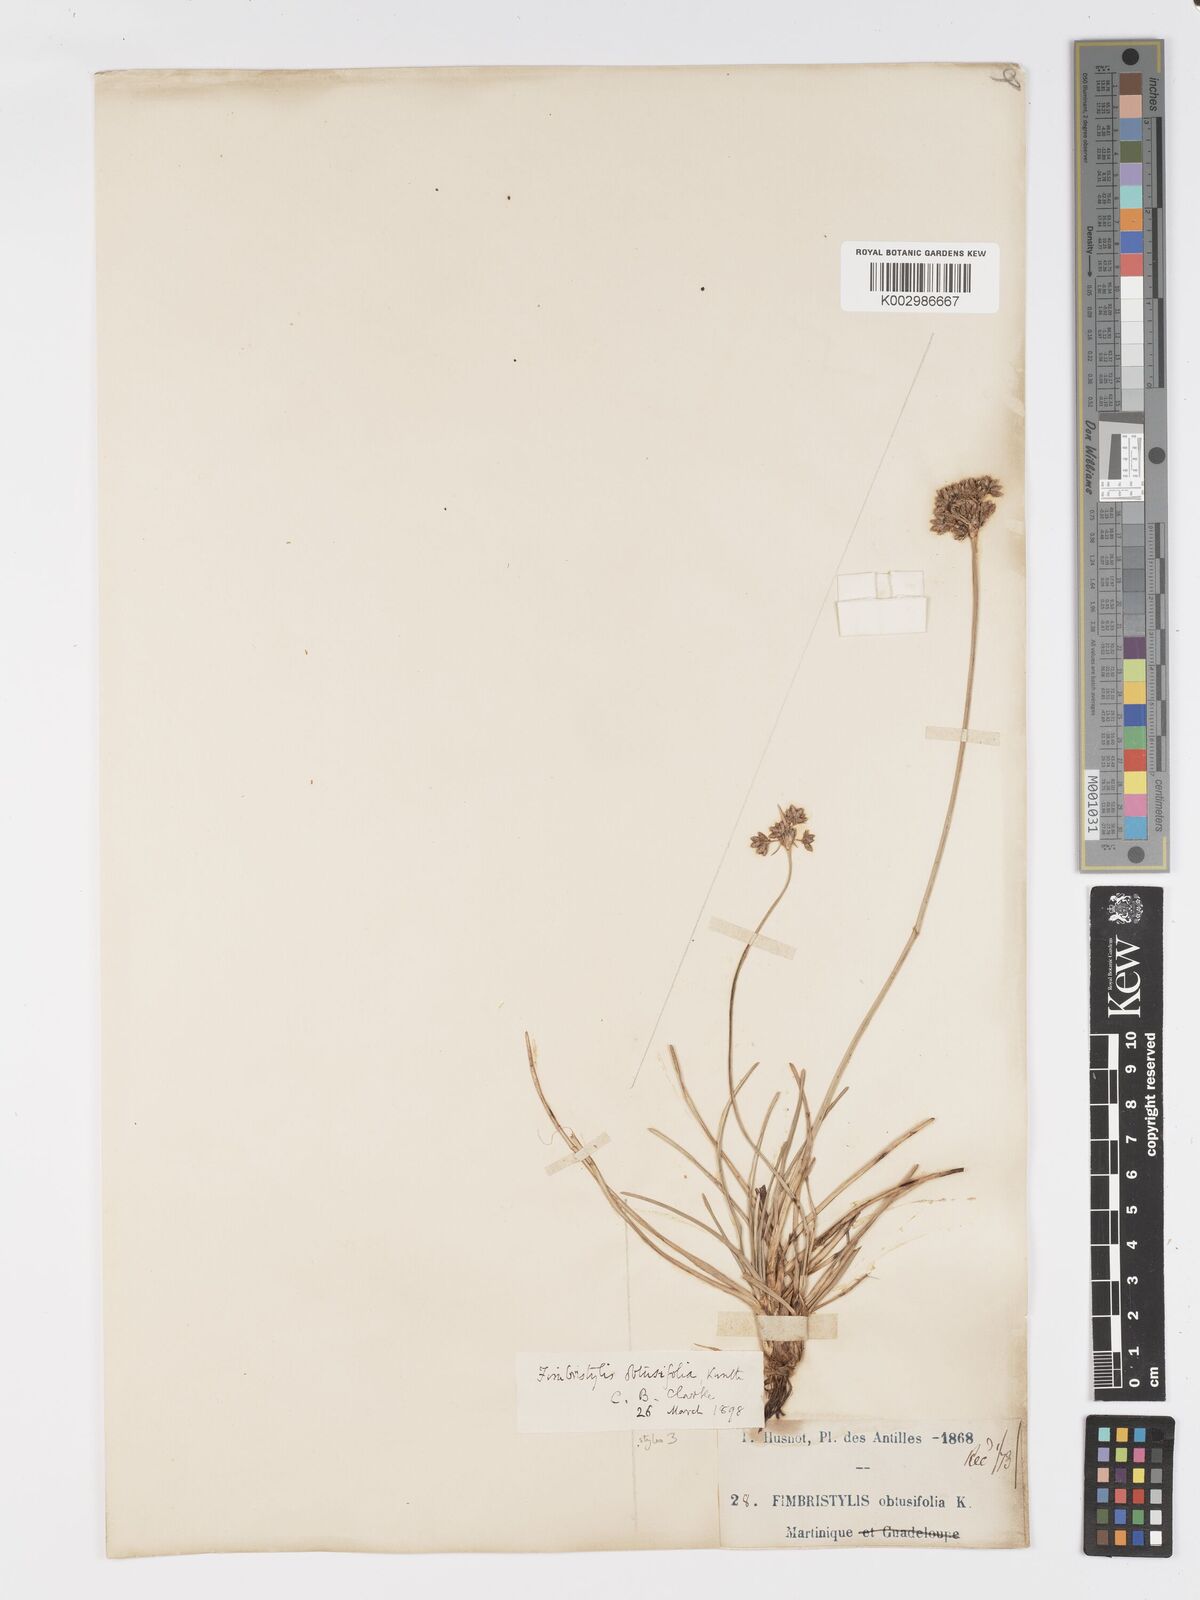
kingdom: Plantae
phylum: Tracheophyta
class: Liliopsida
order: Poales
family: Cyperaceae
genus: Fimbristylis
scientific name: Fimbristylis cymosa
